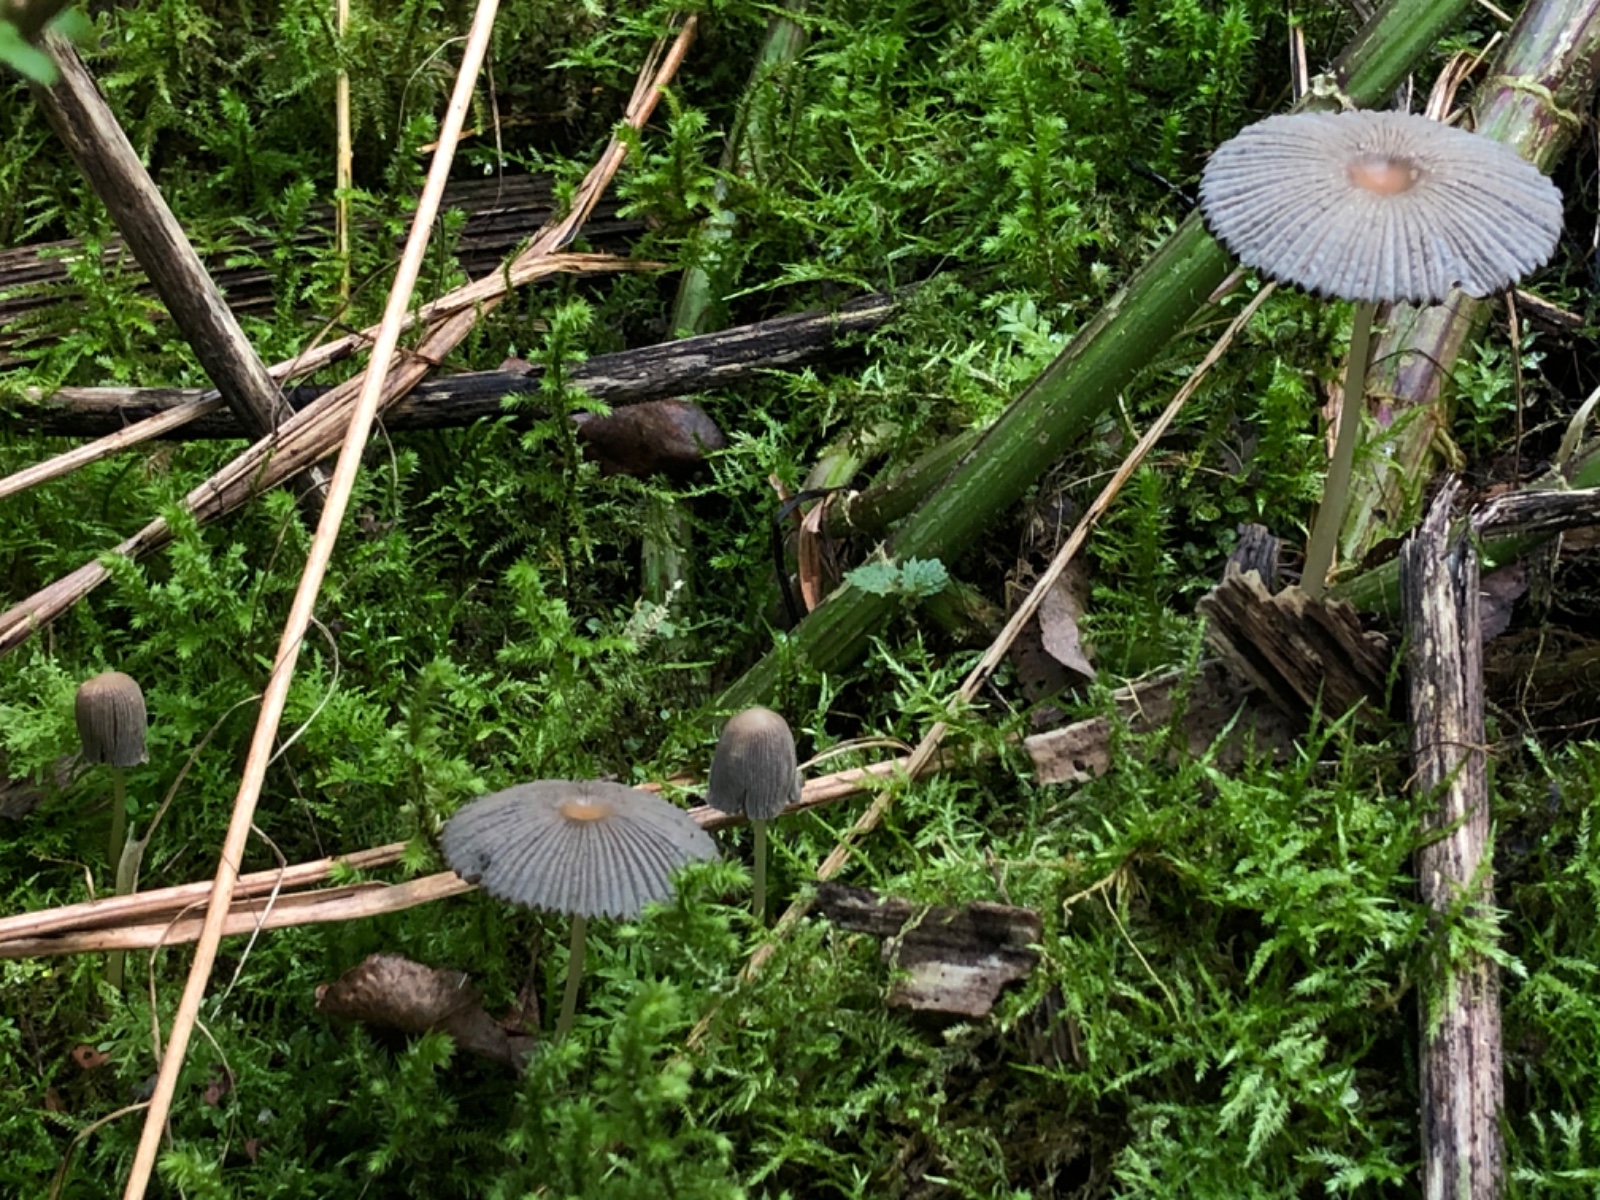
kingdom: Fungi
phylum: Basidiomycota
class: Agaricomycetes
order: Agaricales
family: Psathyrellaceae
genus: Parasola
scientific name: Parasola plicatilis-similis
